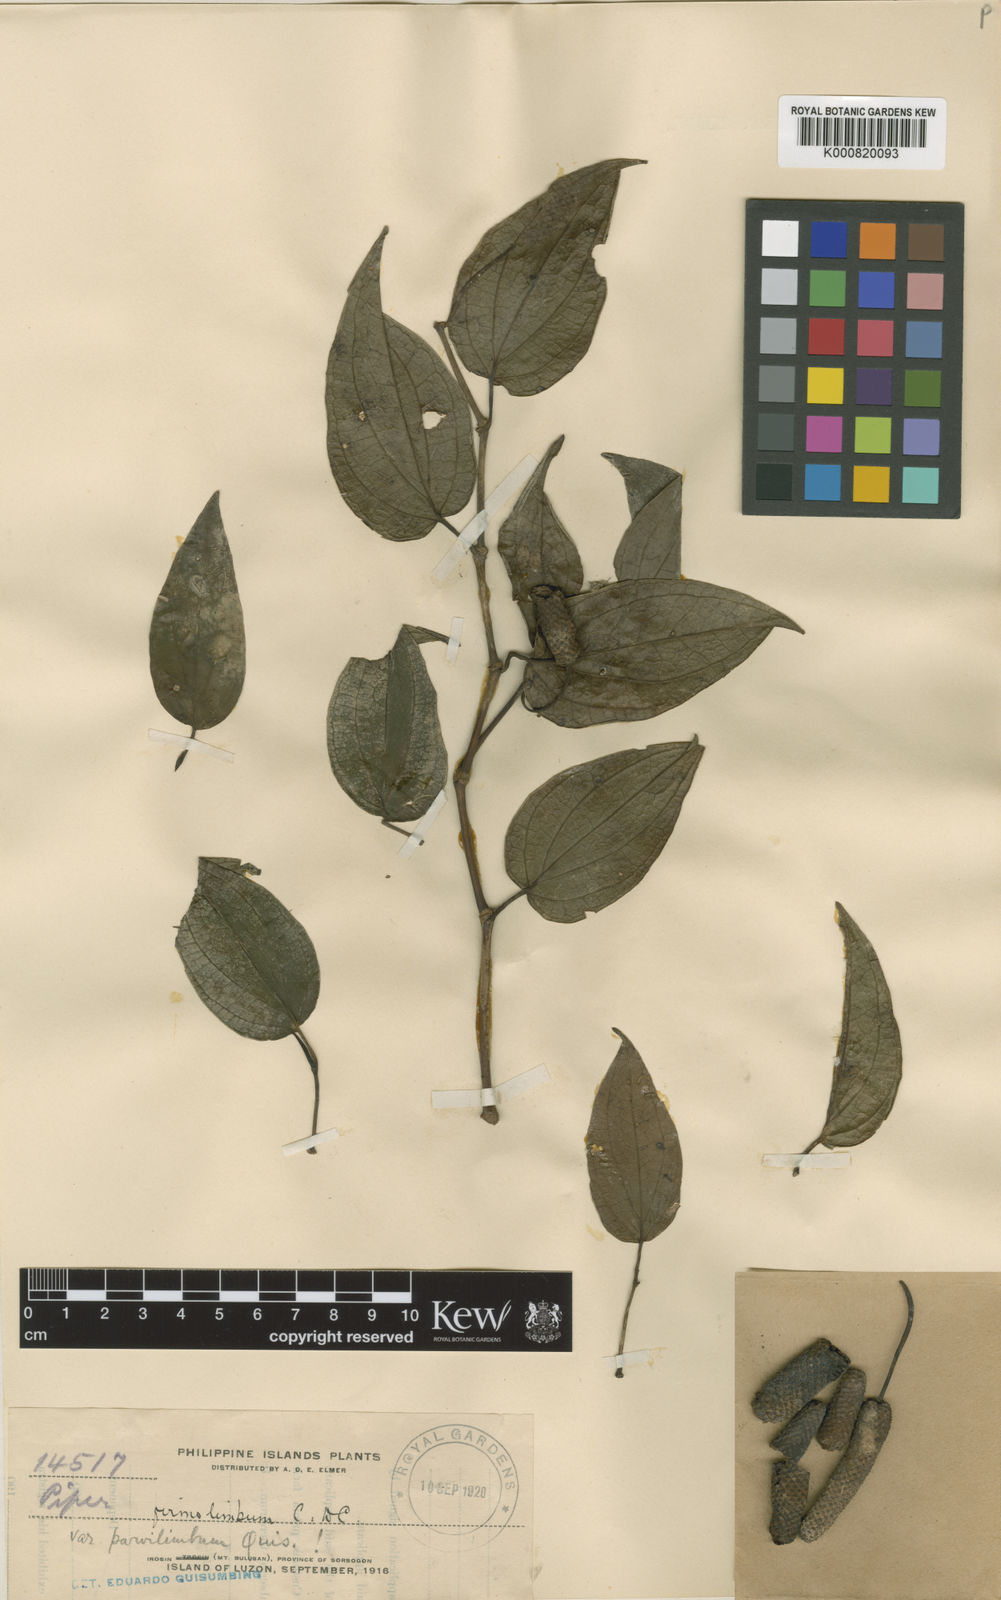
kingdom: Plantae
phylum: Tracheophyta
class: Magnoliopsida
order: Piperales
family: Piperaceae
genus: Piper
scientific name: Piper firmolimbum
